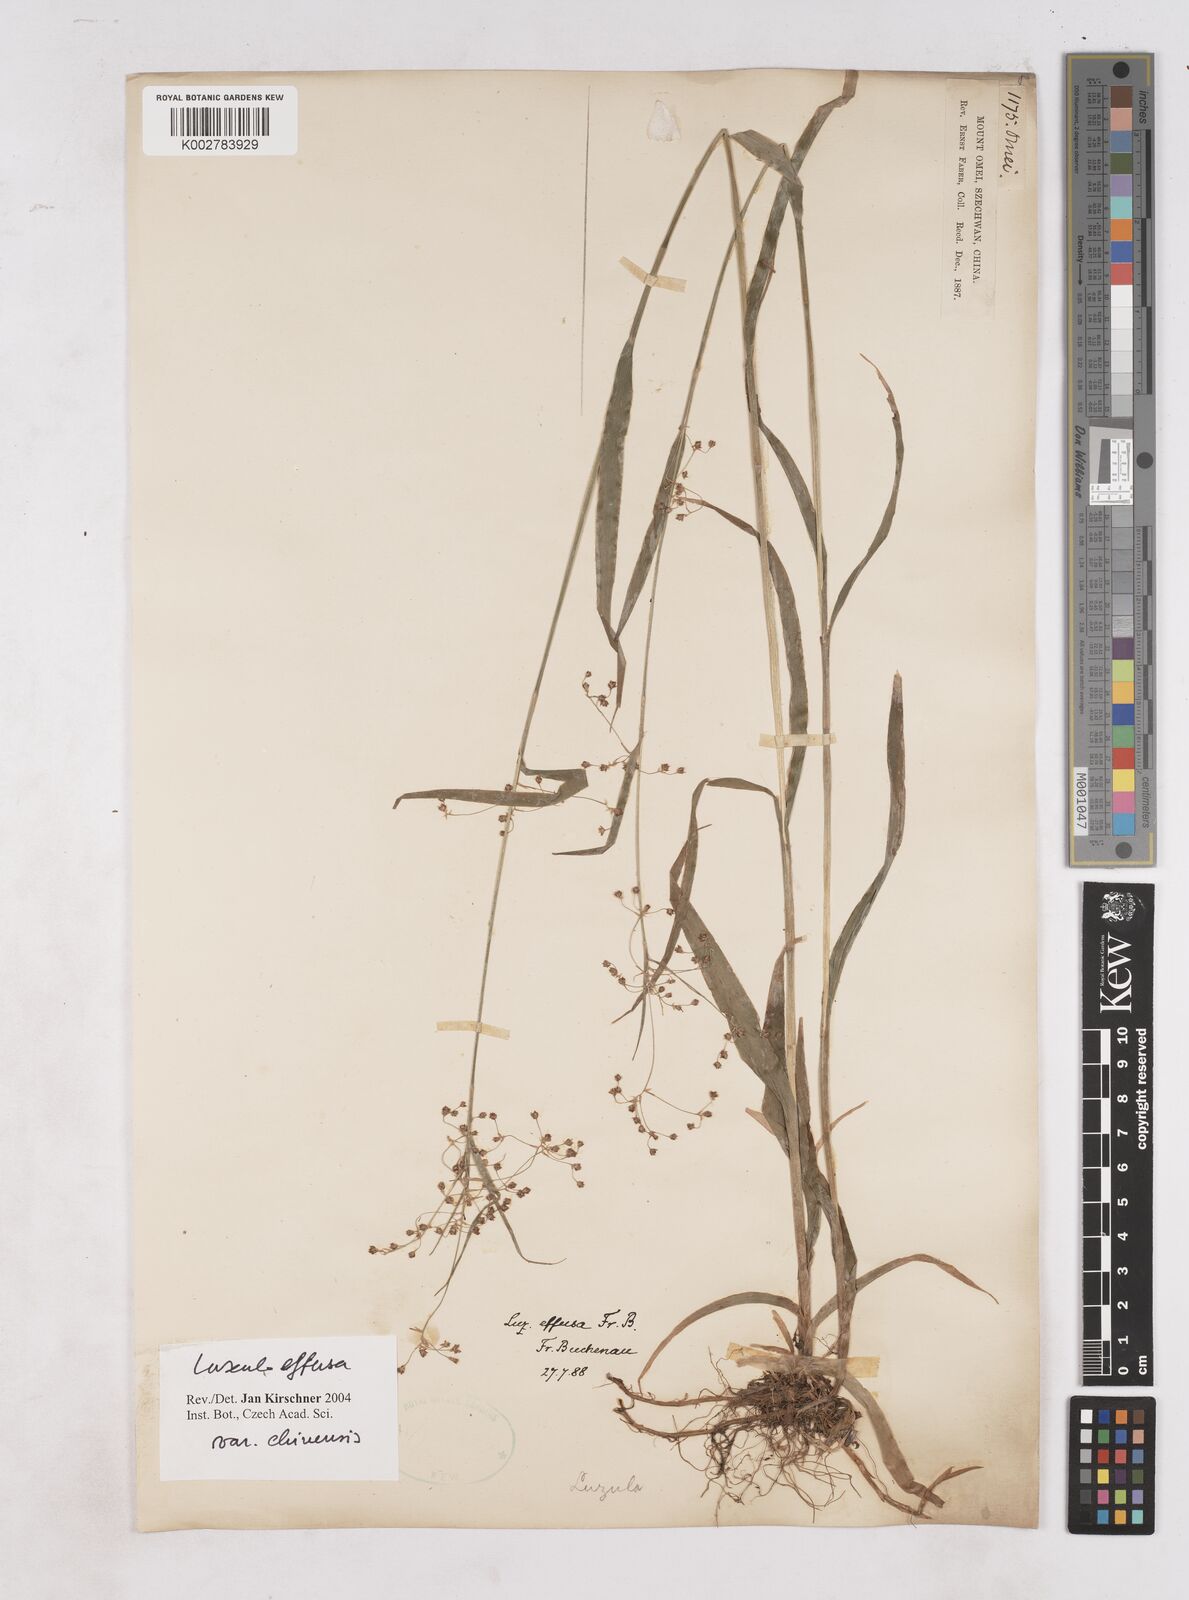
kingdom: Plantae
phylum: Tracheophyta
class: Liliopsida
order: Poales
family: Juncaceae
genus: Luzula
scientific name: Luzula effusa
